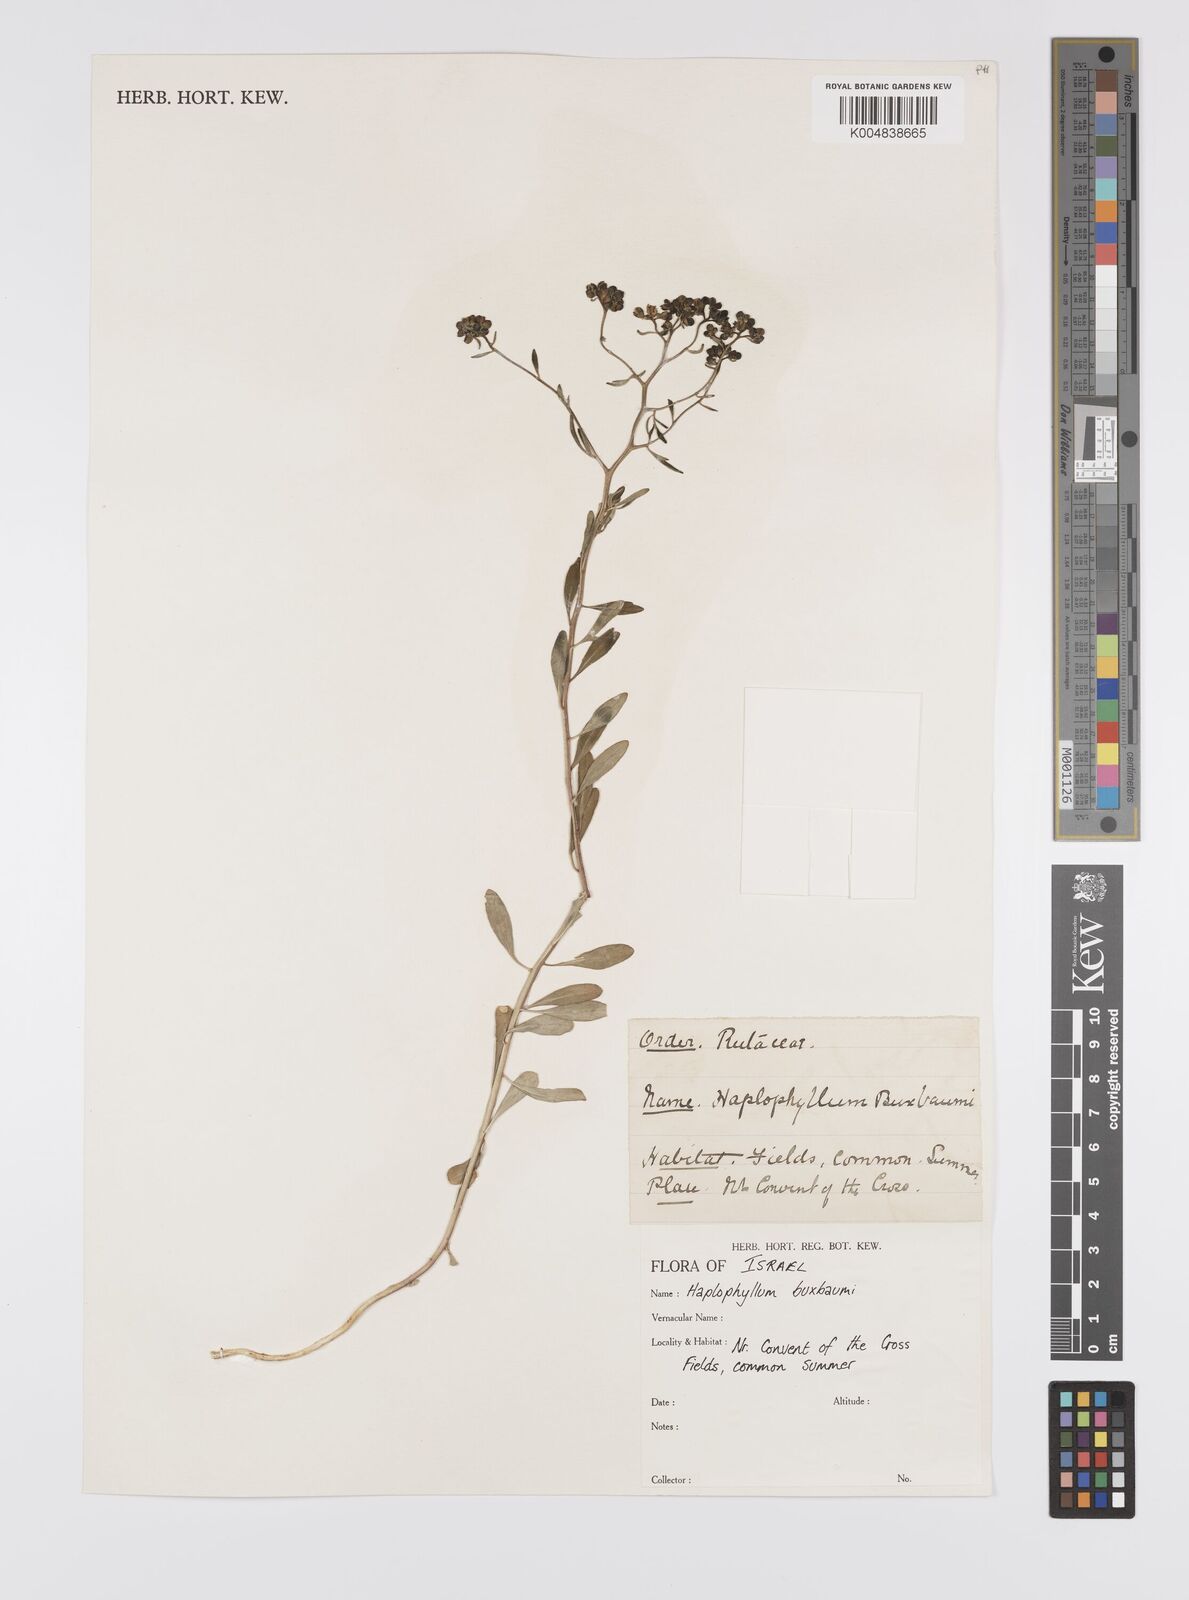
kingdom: Plantae
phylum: Tracheophyta
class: Magnoliopsida
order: Sapindales
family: Rutaceae
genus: Haplophyllum
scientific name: Haplophyllum
